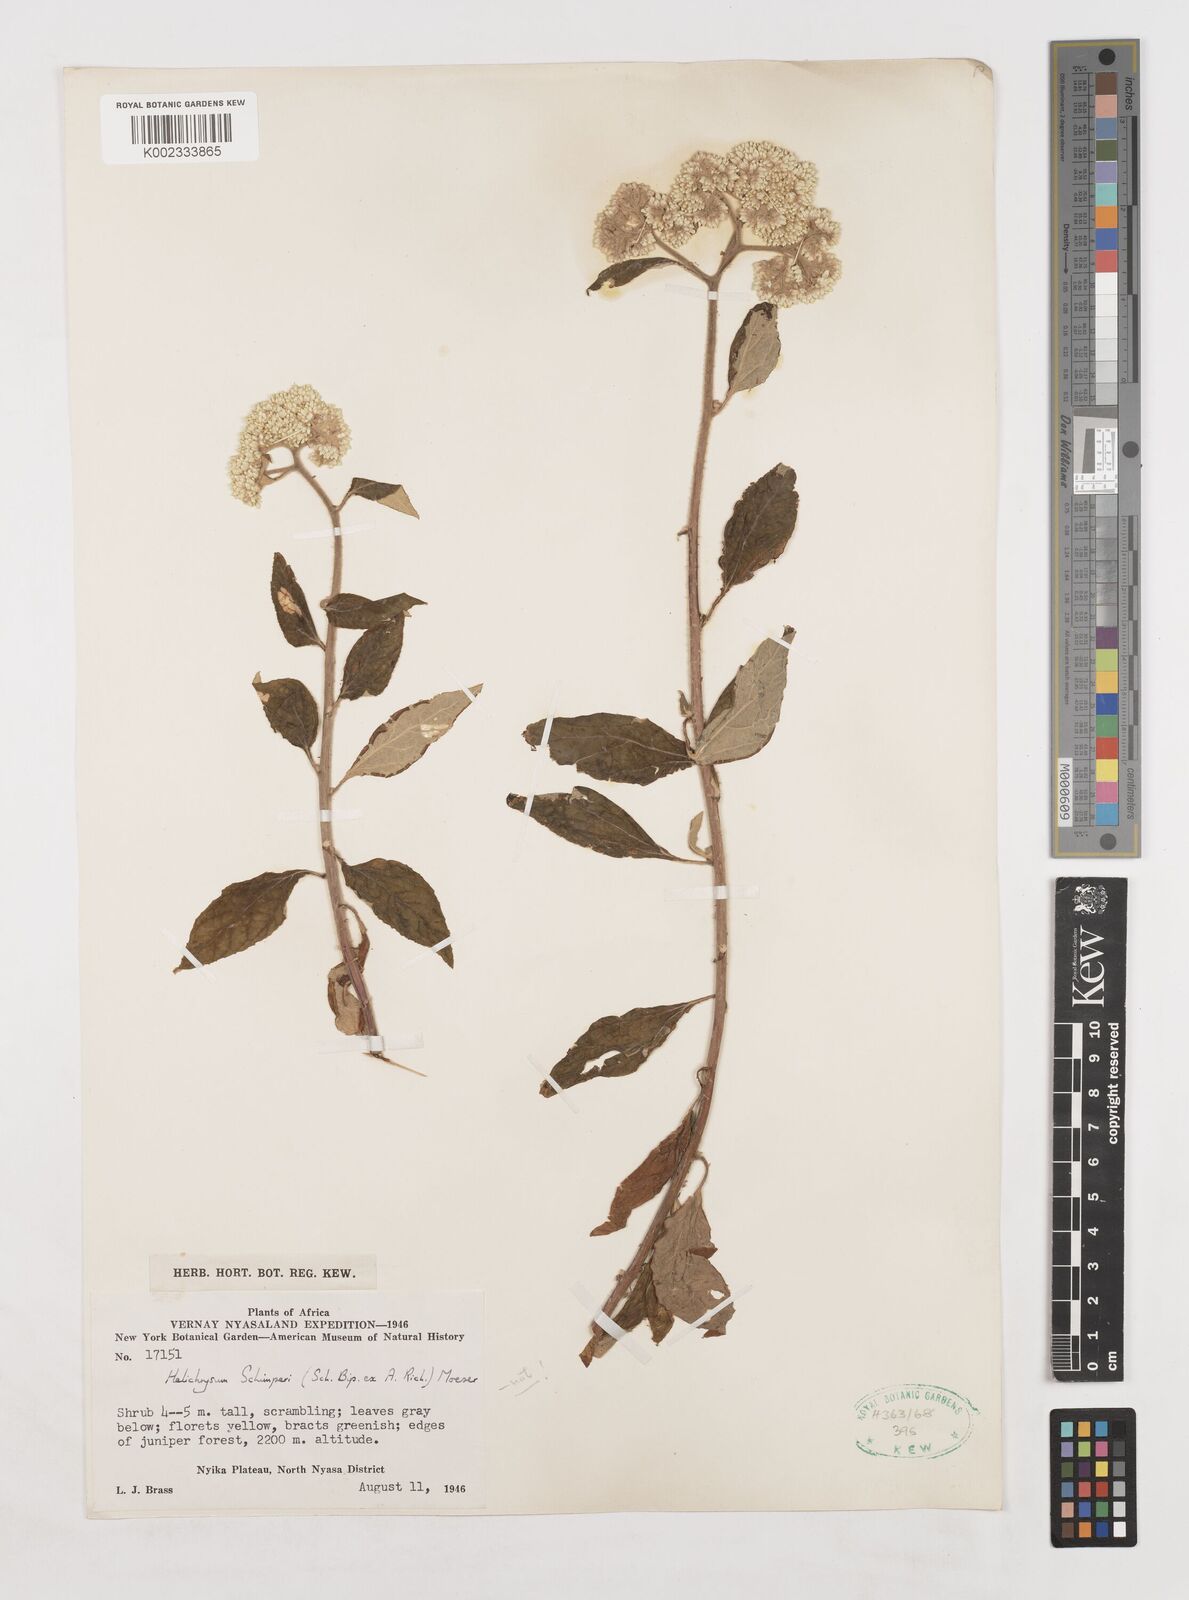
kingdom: Plantae
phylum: Tracheophyta
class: Magnoliopsida
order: Asterales
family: Asteraceae
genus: Helichrysum
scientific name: Helichrysum schimperi
